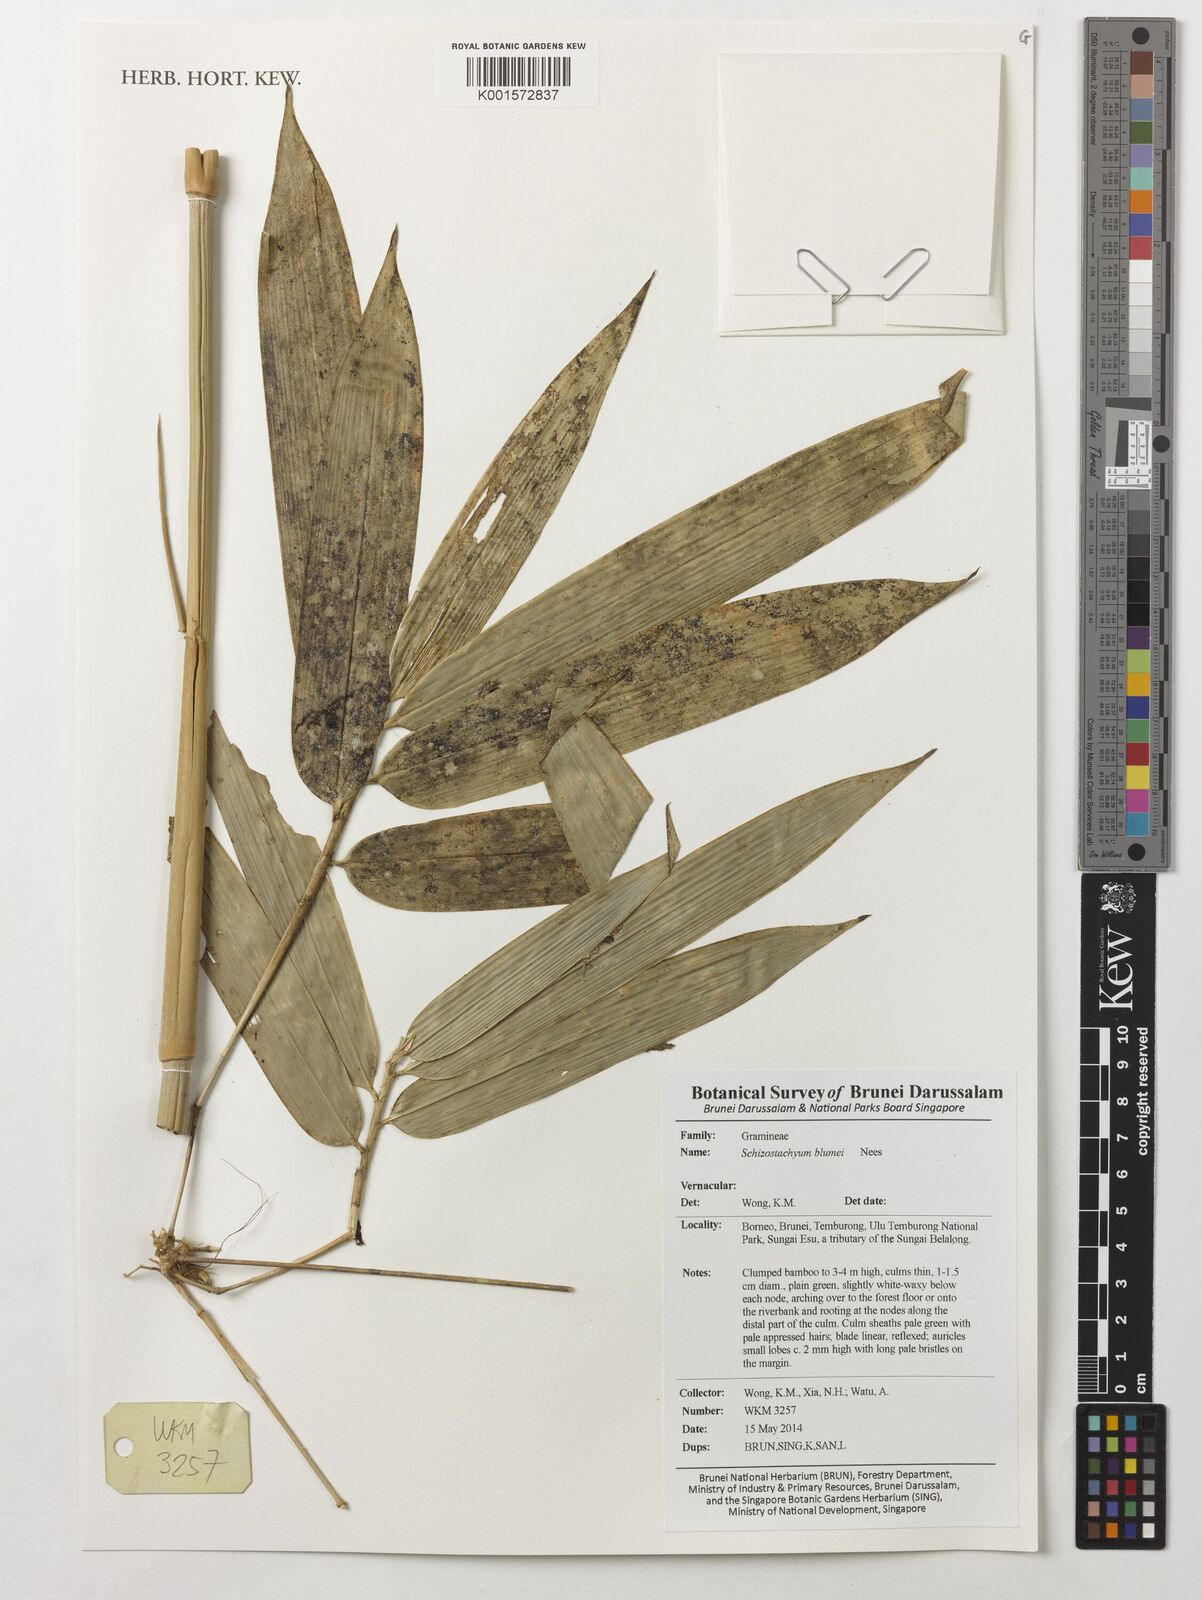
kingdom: Plantae
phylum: Tracheophyta
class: Liliopsida
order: Poales
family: Poaceae
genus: Schizostachyum
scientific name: Schizostachyum blumei
